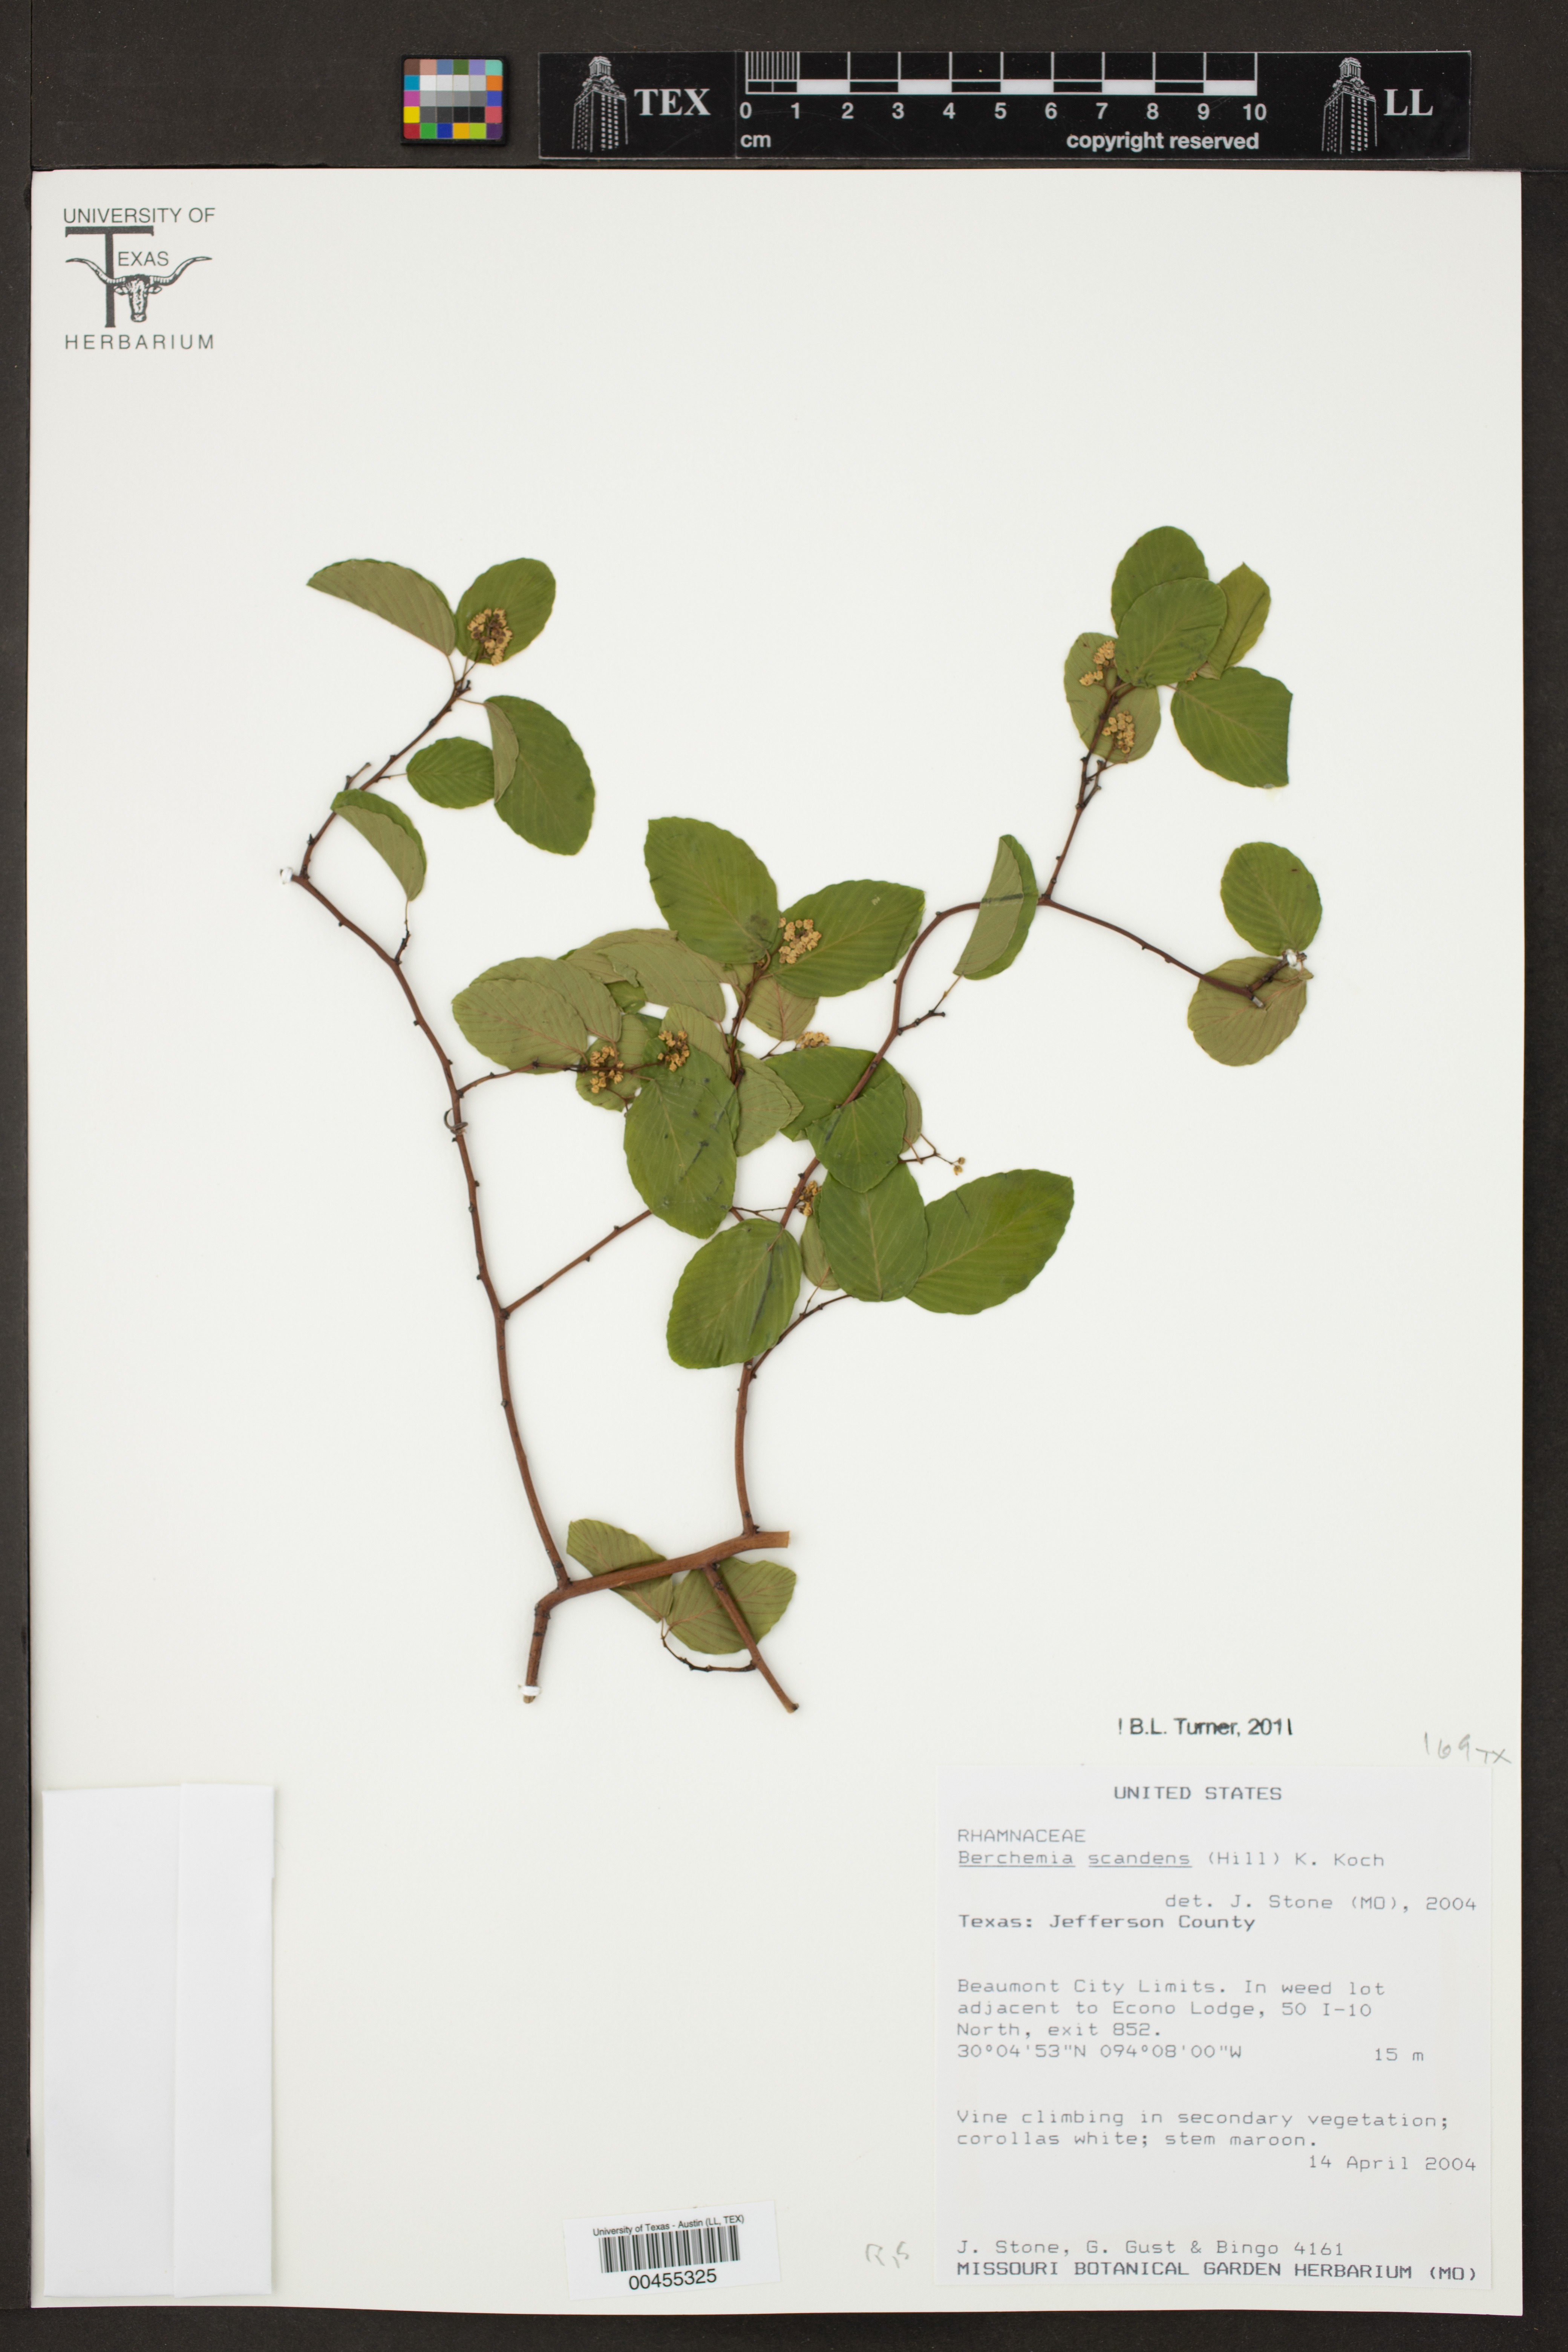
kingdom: Plantae
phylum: Tracheophyta
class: Magnoliopsida
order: Rosales
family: Rhamnaceae
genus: Berchemia
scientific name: Berchemia scandens
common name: Supplejack
